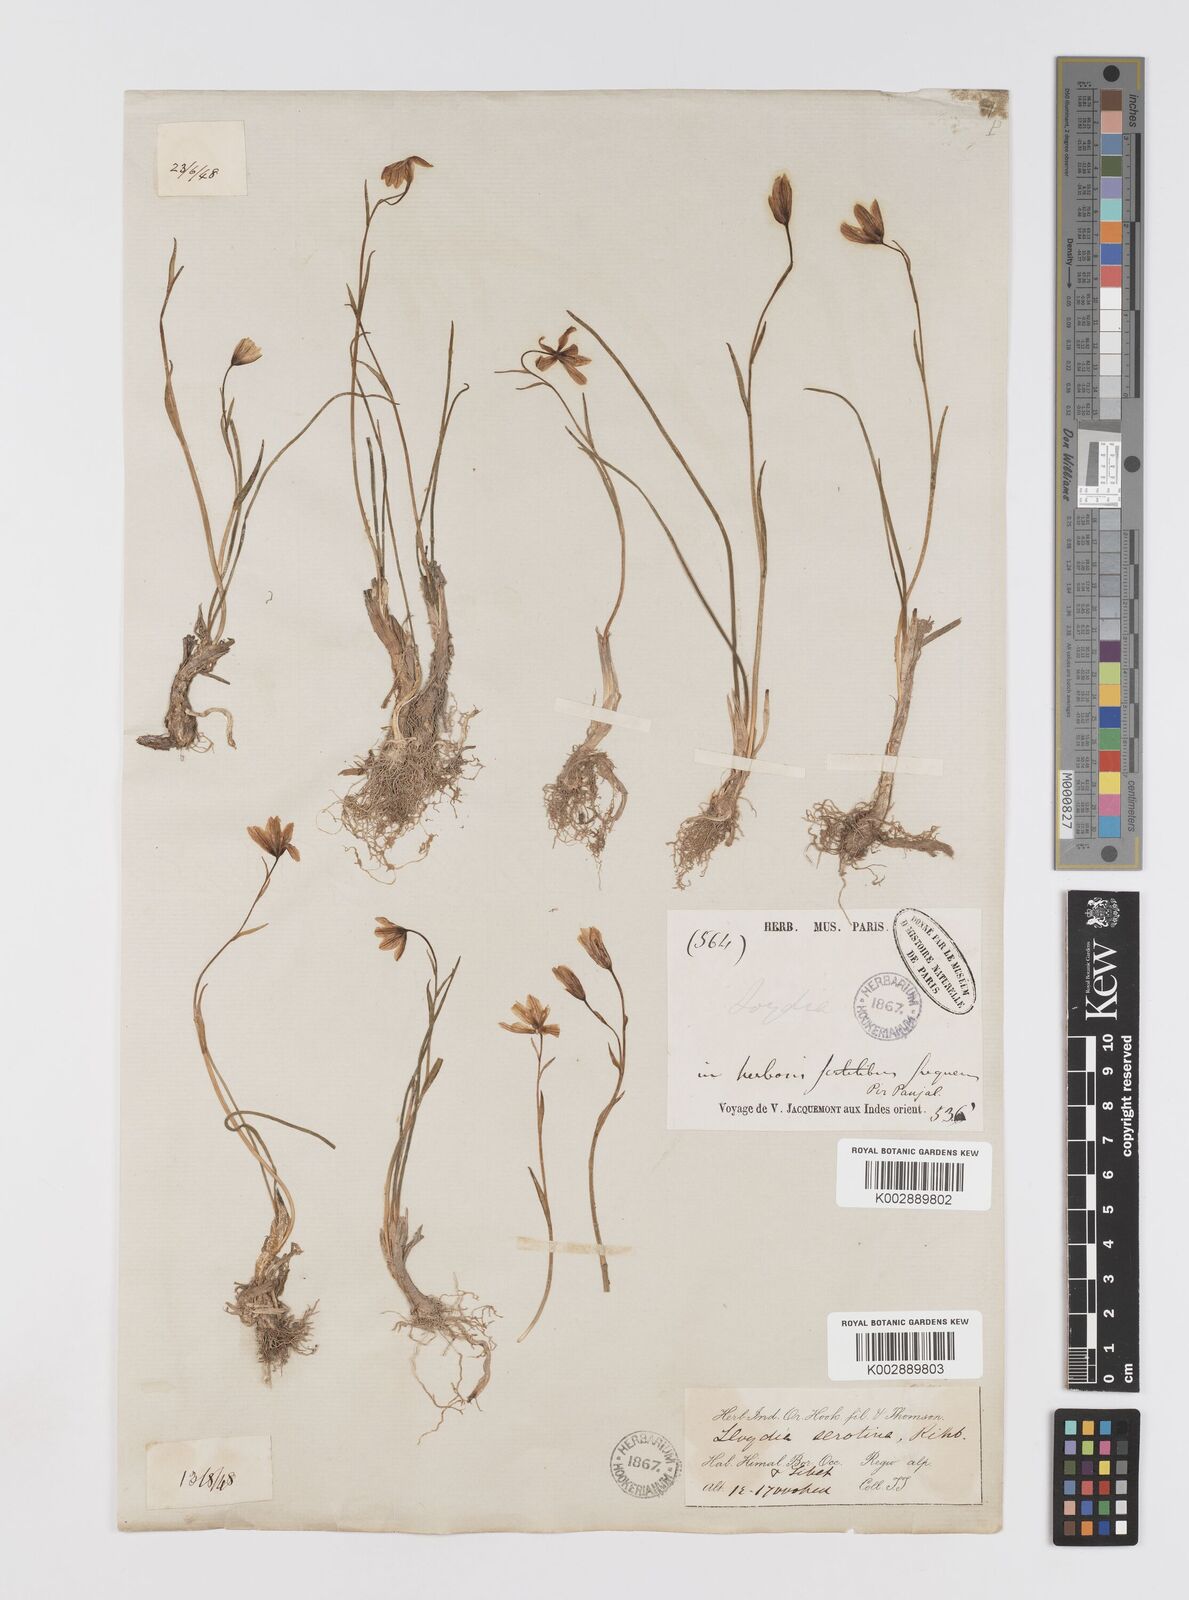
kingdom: Plantae
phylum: Tracheophyta
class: Liliopsida
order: Liliales
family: Liliaceae
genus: Gagea
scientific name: Gagea serotina
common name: Snowdon lily
